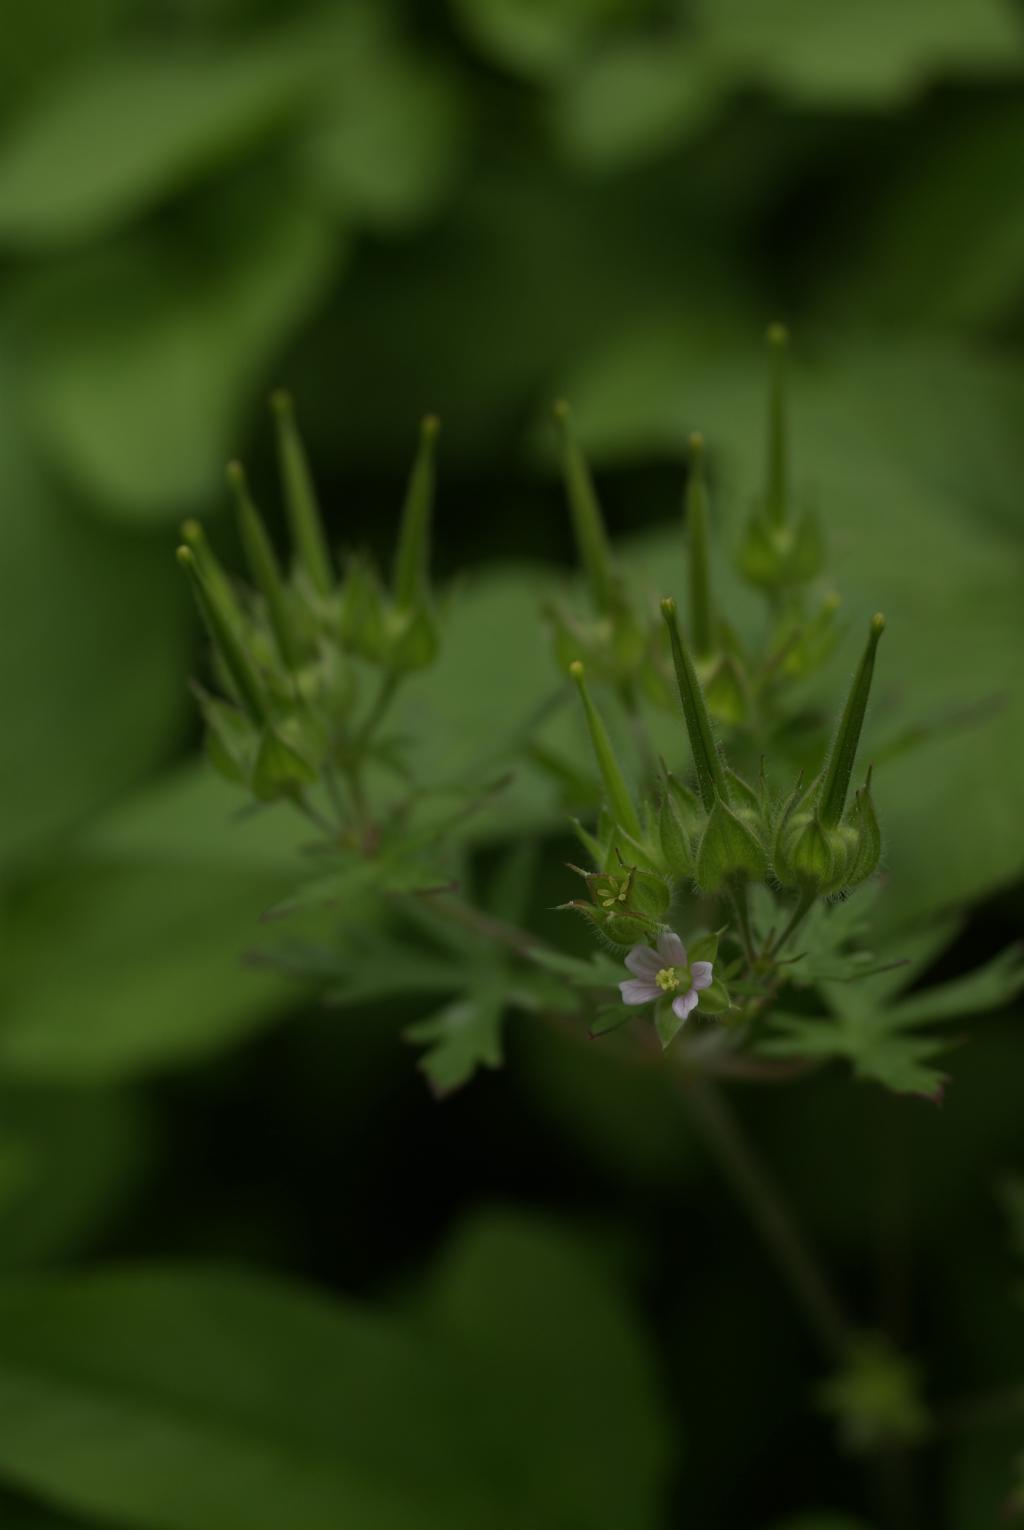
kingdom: Plantae
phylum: Tracheophyta
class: Magnoliopsida
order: Geraniales
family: Geraniaceae
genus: Geranium
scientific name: Geranium carolinianum
